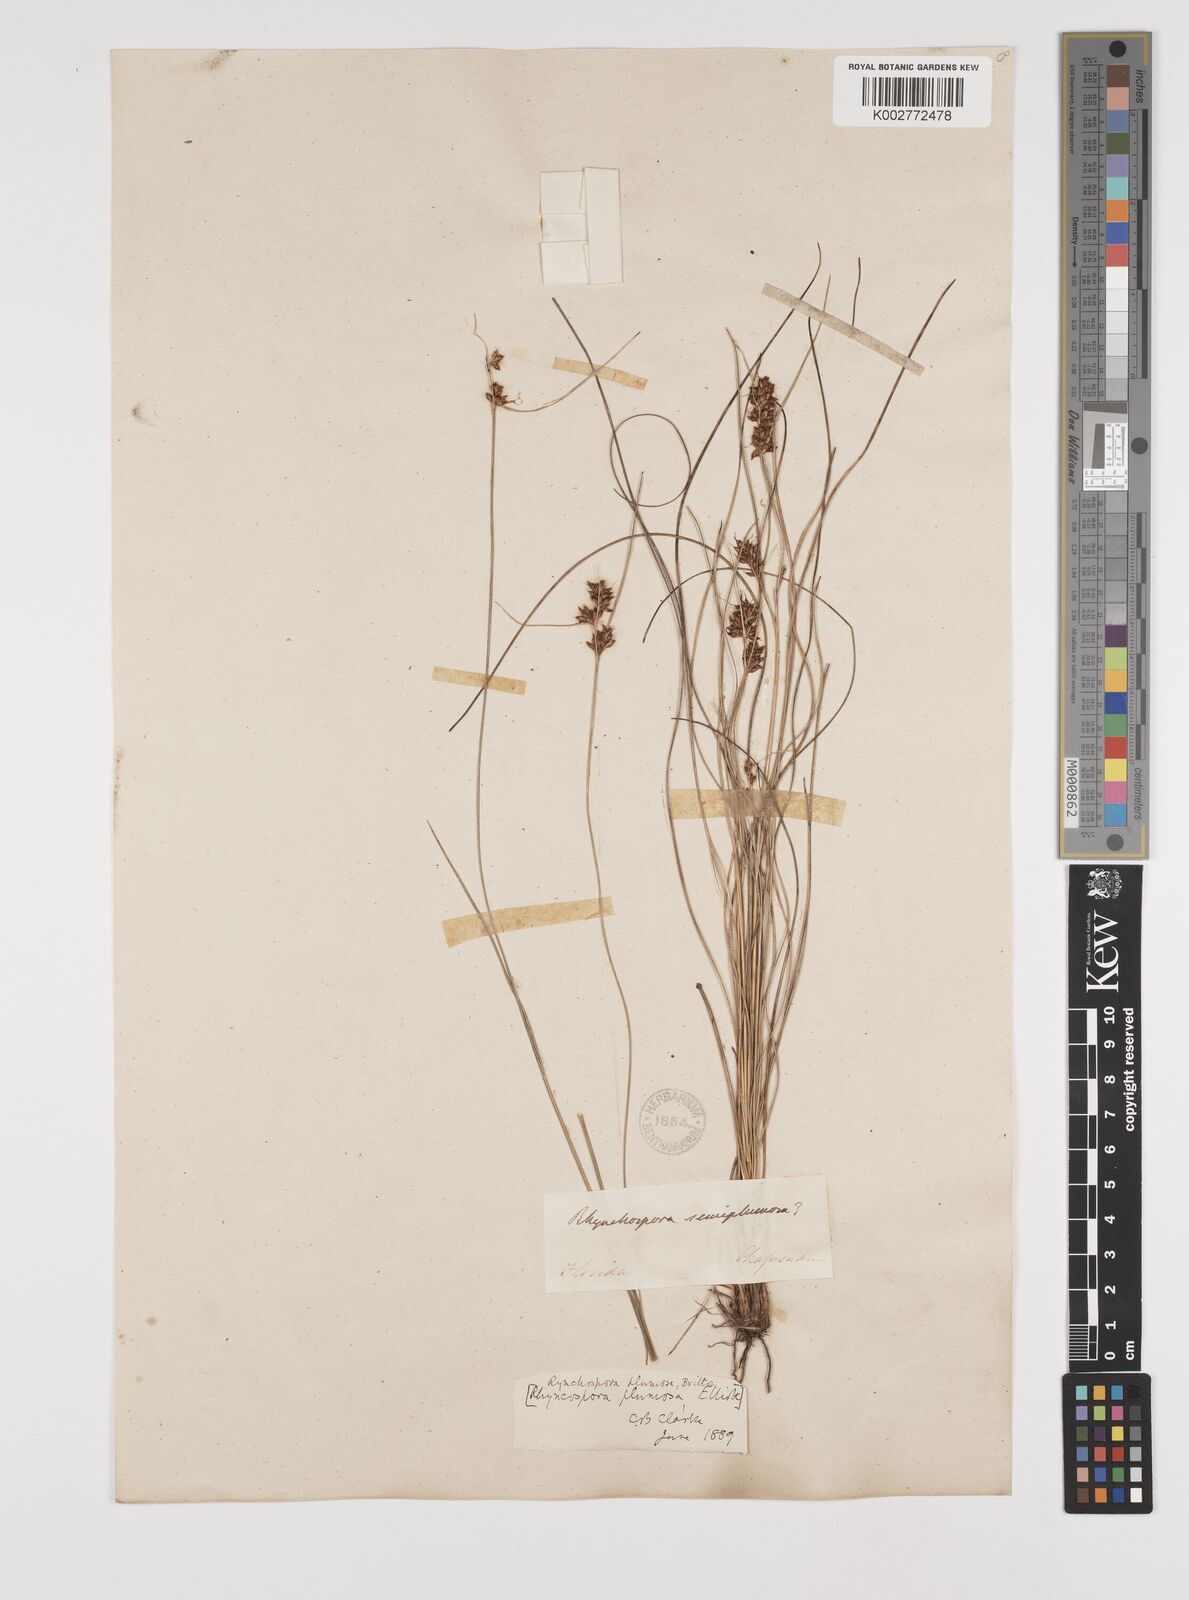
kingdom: Plantae
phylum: Tracheophyta
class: Liliopsida
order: Poales
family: Cyperaceae
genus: Rhynchospora
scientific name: Rhynchospora plumosa
